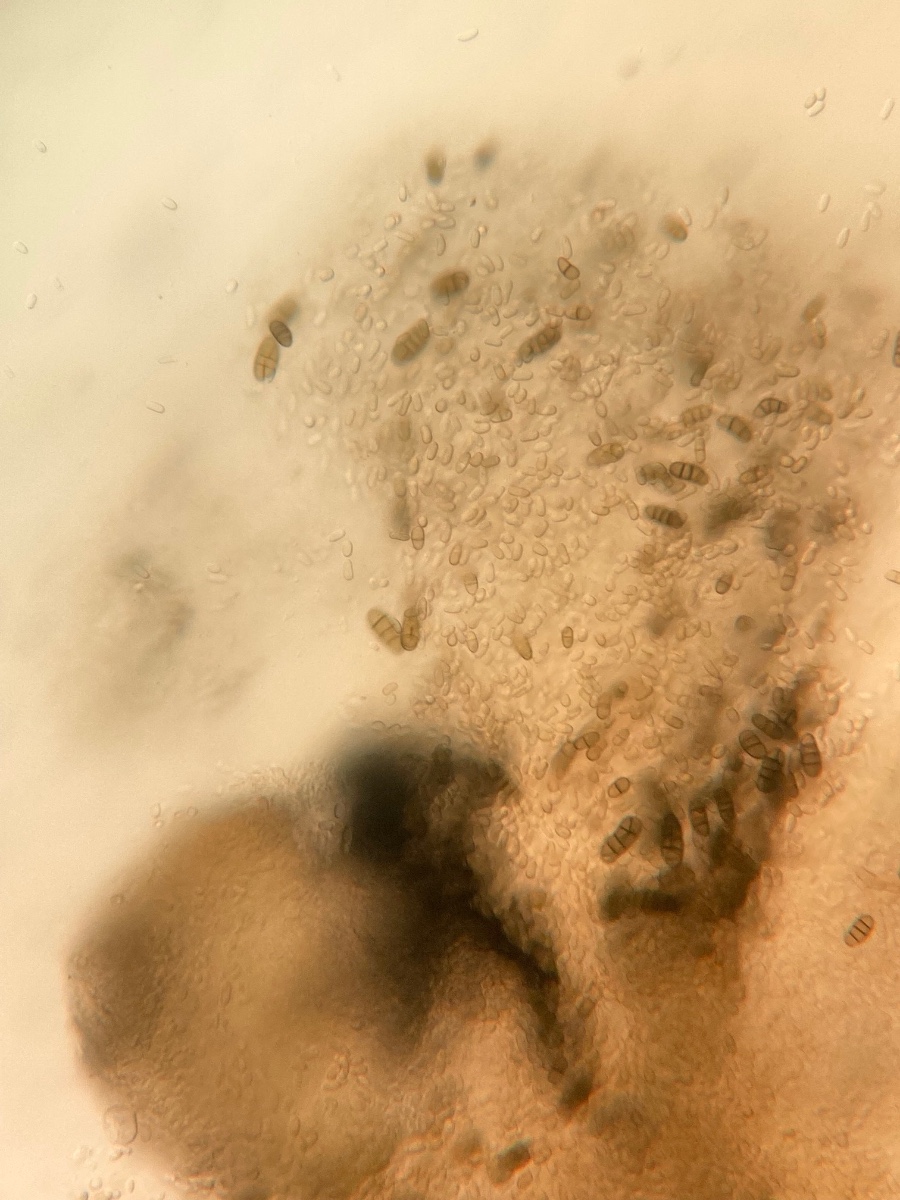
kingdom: Fungi
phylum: Ascomycota
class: Dothideomycetes
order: Pleosporales
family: Camarosporidiellaceae
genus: Camarosporidiella
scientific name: Camarosporidiella
